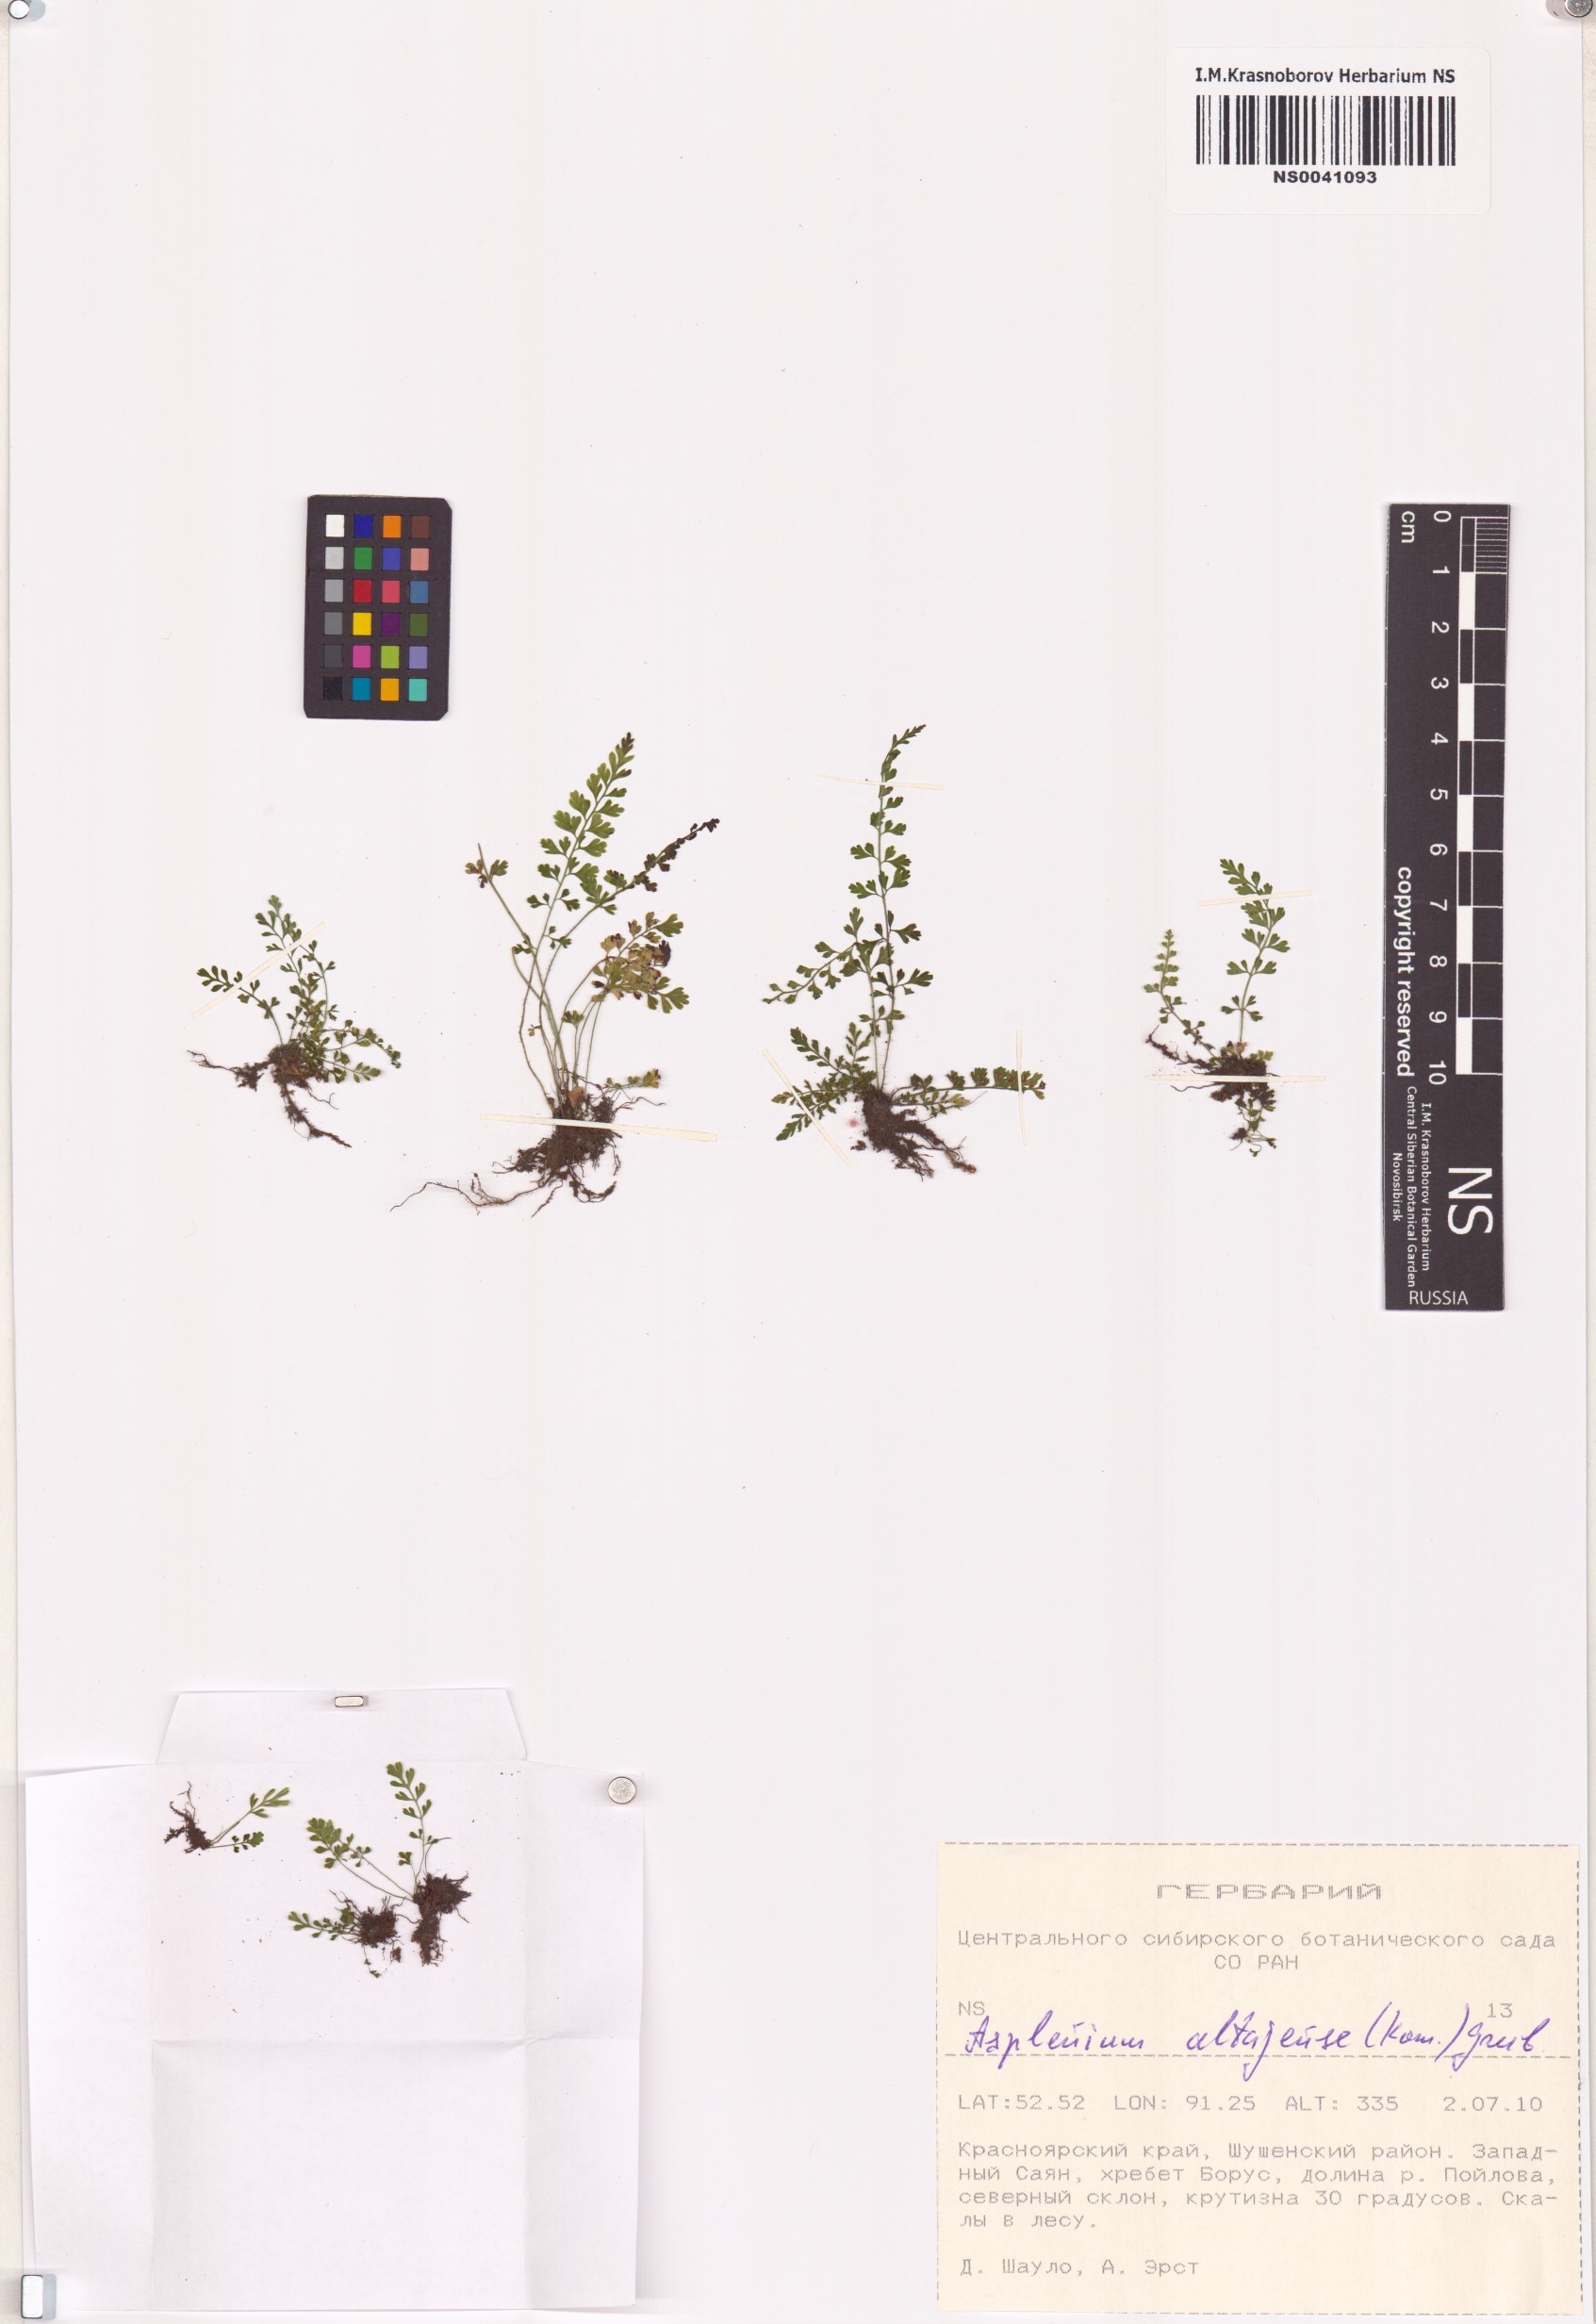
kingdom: Plantae
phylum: Tracheophyta
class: Polypodiopsida
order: Polypodiales
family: Aspleniaceae
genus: Asplenium
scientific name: Asplenium altajense
